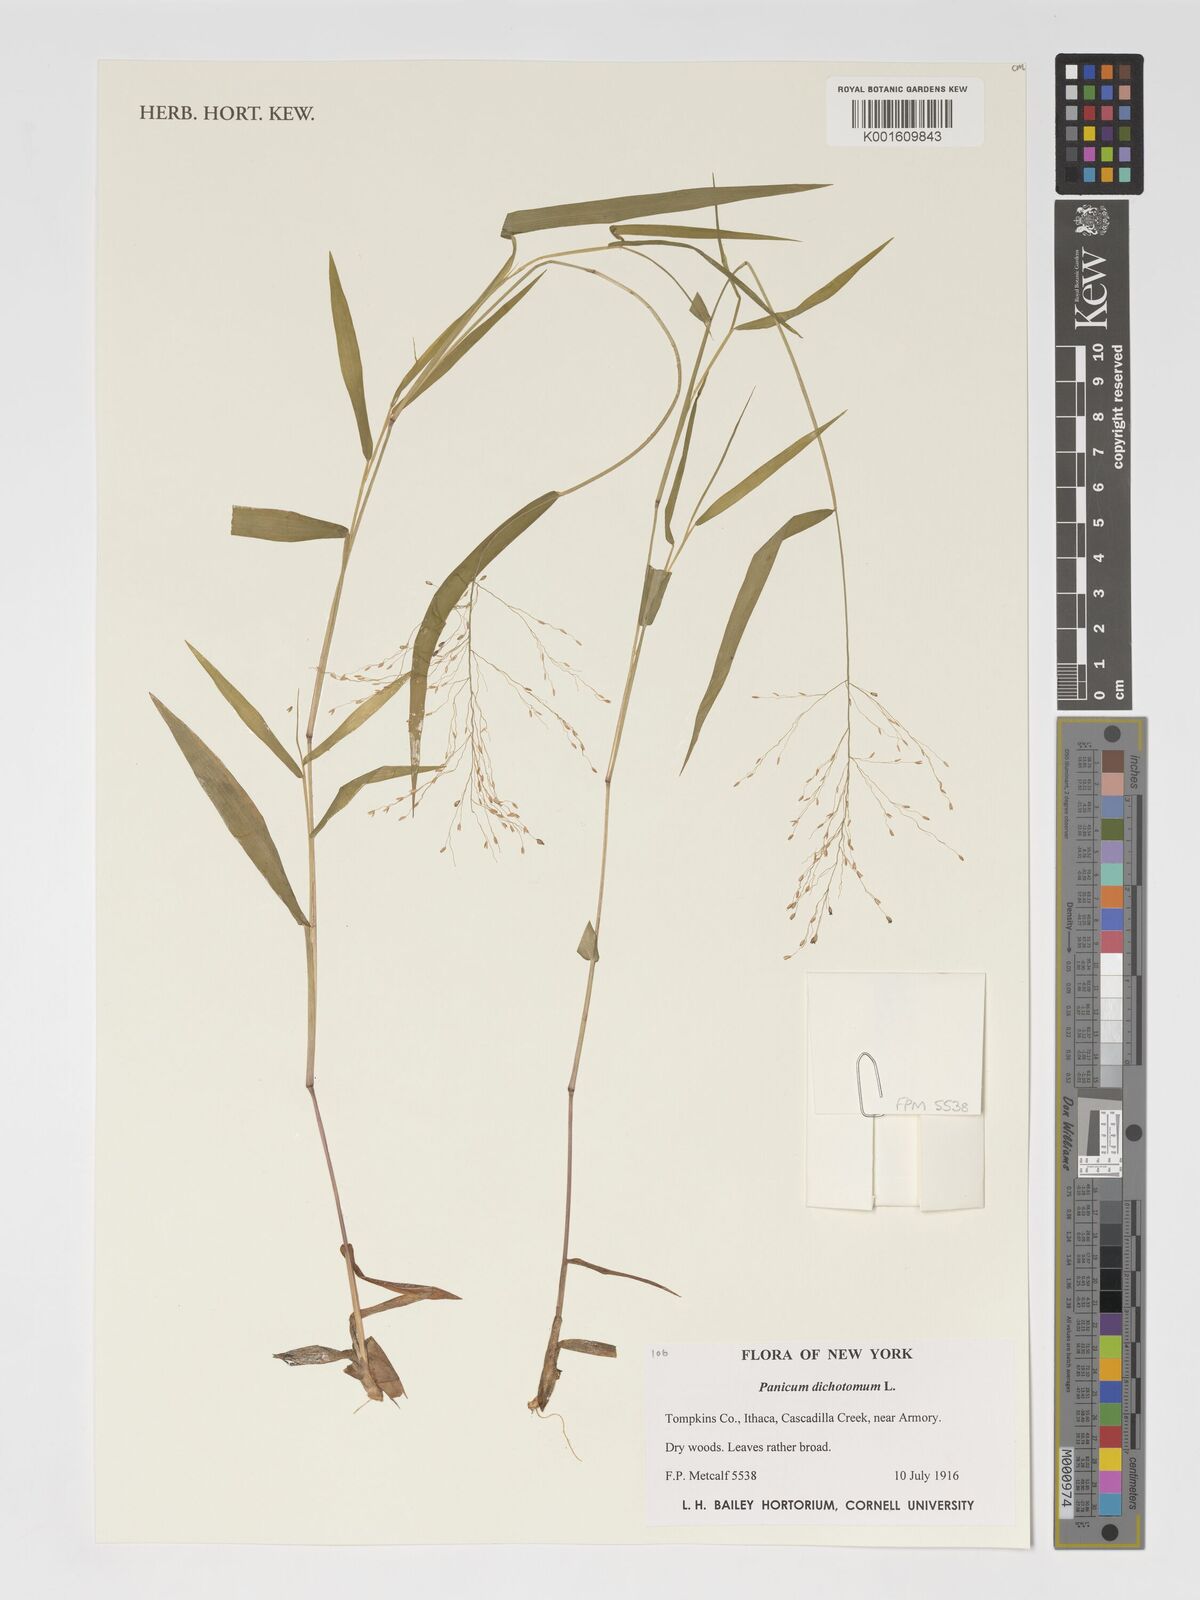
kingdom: Plantae
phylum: Tracheophyta
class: Liliopsida
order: Poales
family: Poaceae
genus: Dichanthelium
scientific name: Dichanthelium dichotomum
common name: Cypress panicgrass
